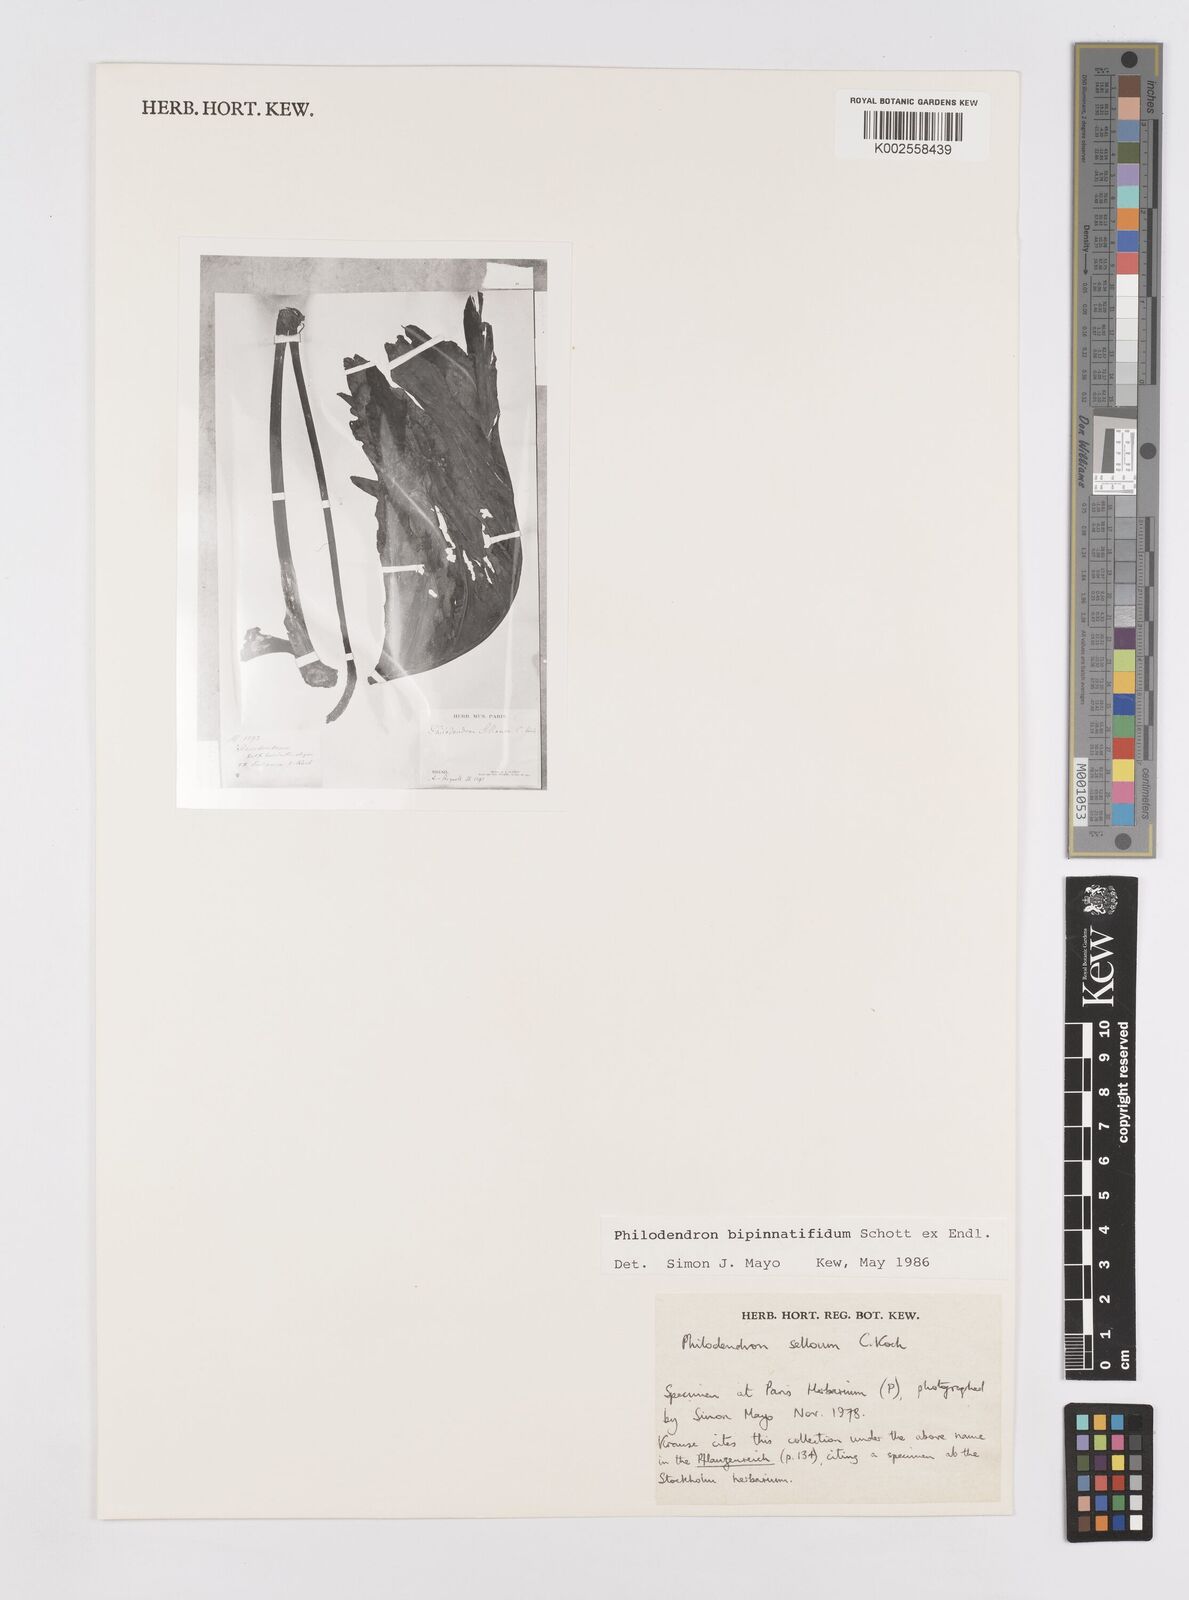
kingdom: Plantae
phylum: Tracheophyta
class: Liliopsida
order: Alismatales
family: Araceae
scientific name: Araceae
